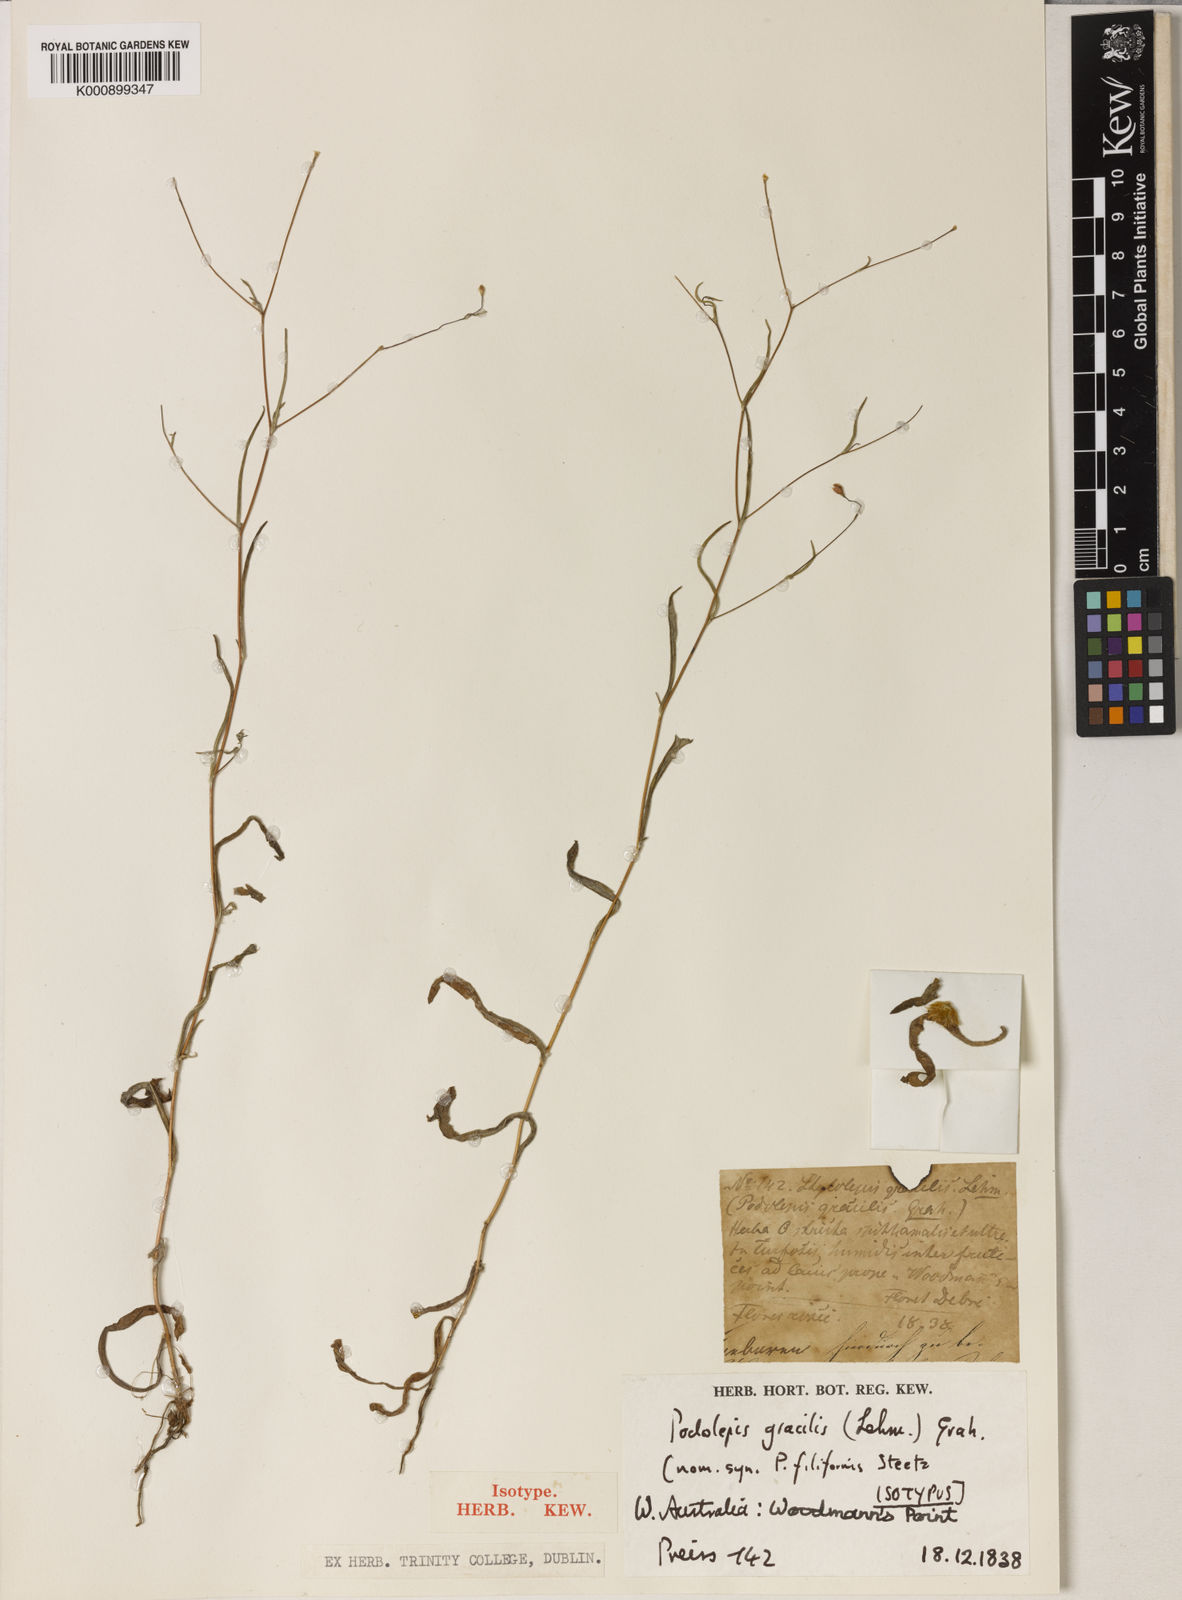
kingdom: Plantae
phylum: Tracheophyta
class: Magnoliopsida
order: Asterales
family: Asteraceae
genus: Podolepis
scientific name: Podolepis gracilis
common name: Slender podolepis
